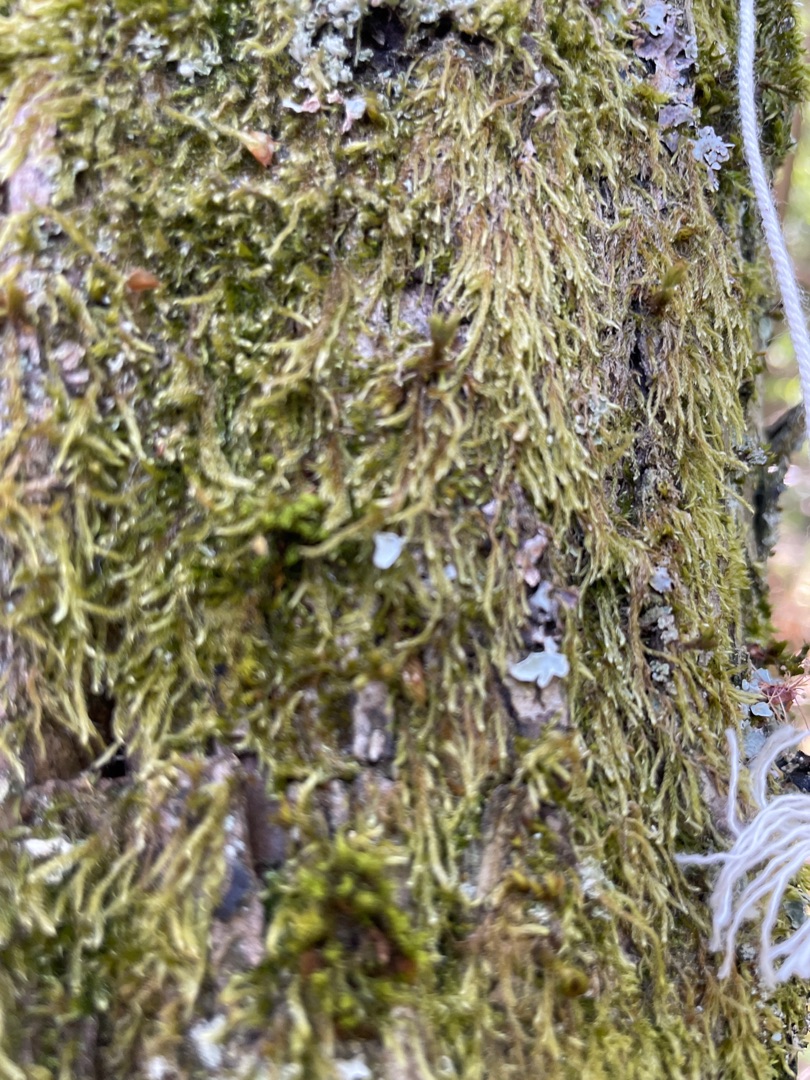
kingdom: Plantae
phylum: Bryophyta
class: Bryopsida
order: Hypnales
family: Hypnaceae
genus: Hypnum
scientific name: Hypnum
